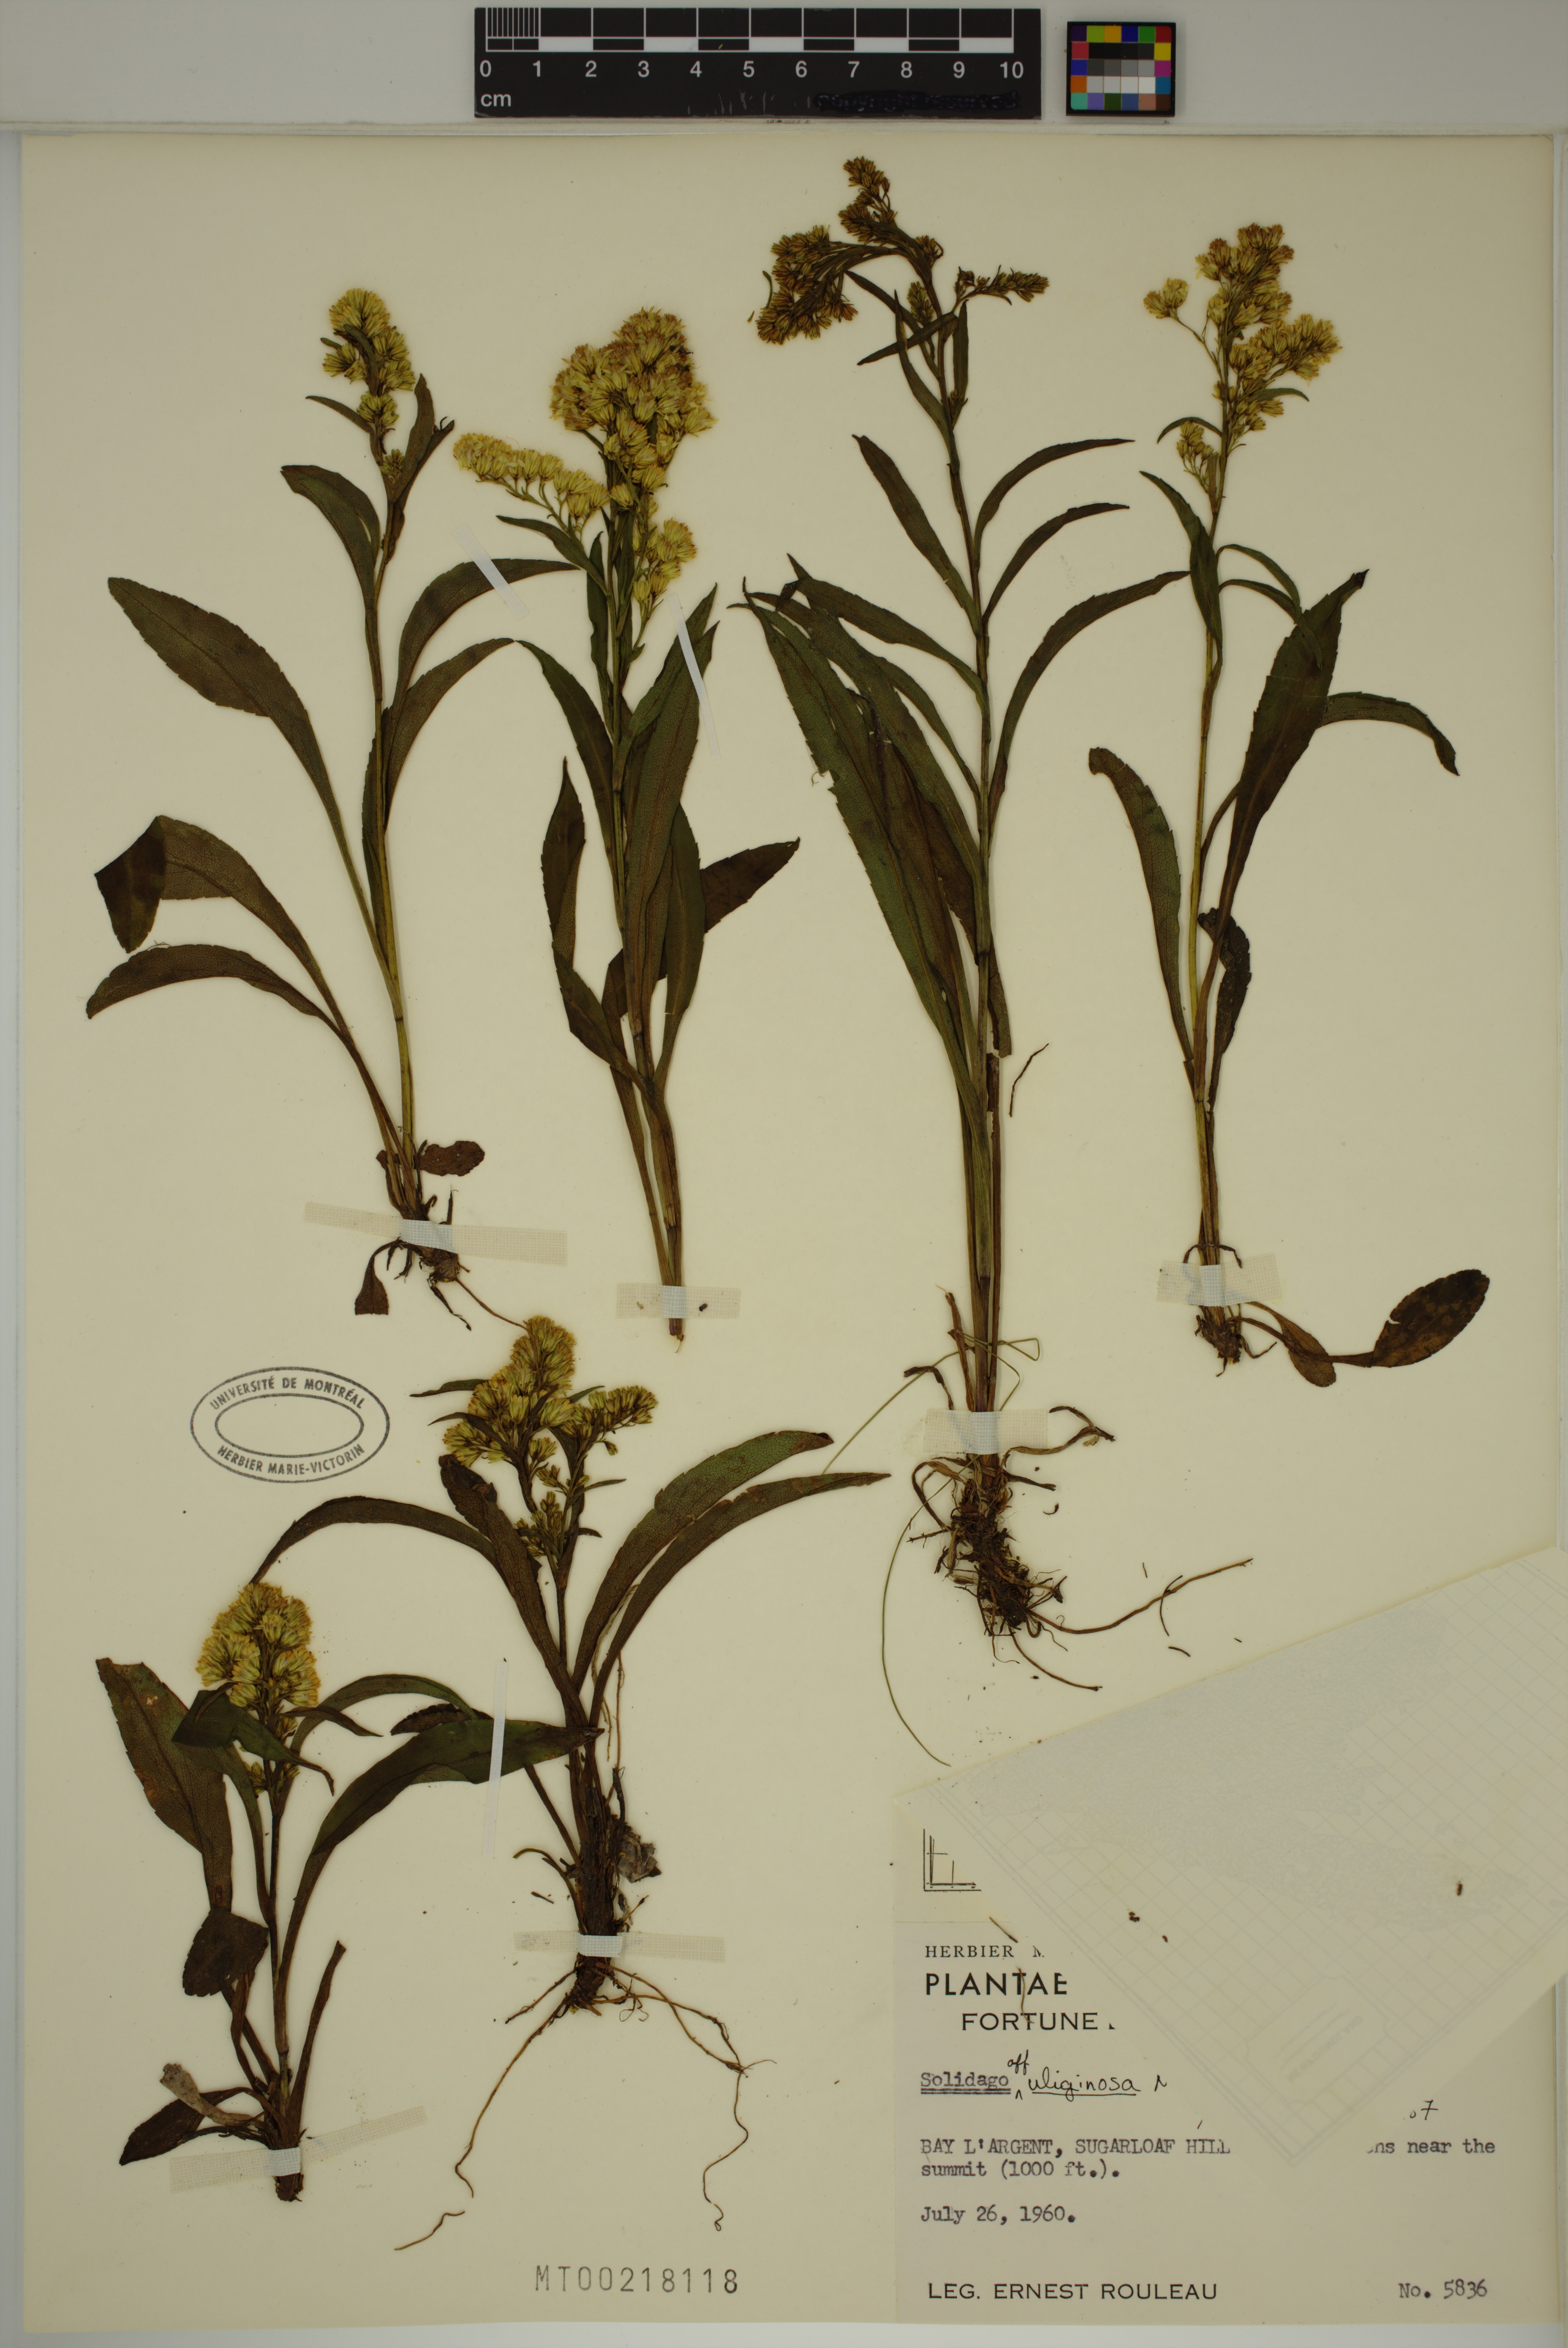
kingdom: Plantae
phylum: Tracheophyta
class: Magnoliopsida
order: Asterales
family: Asteraceae
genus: Solidago
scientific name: Solidago uliginosa
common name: Bog goldenrod
